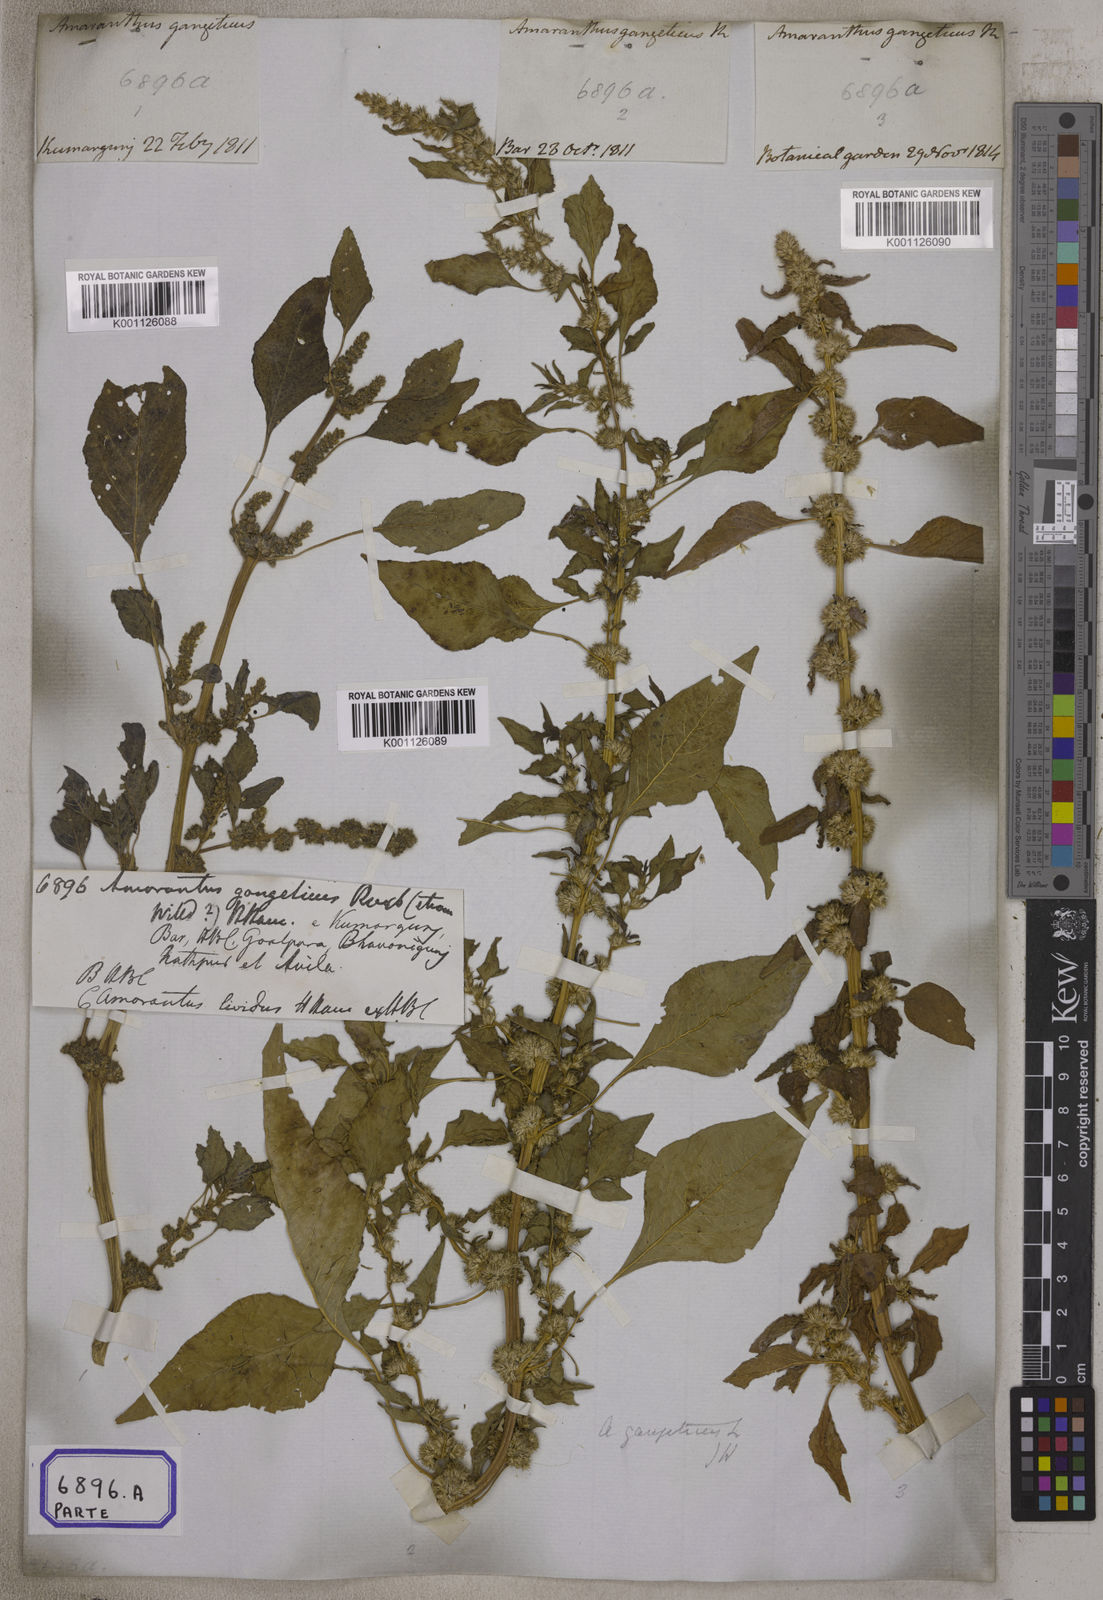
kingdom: Plantae
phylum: Tracheophyta
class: Magnoliopsida
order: Caryophyllales
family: Amaranthaceae
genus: Amaranthus
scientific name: Amaranthus blitum
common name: Purple amaranth
